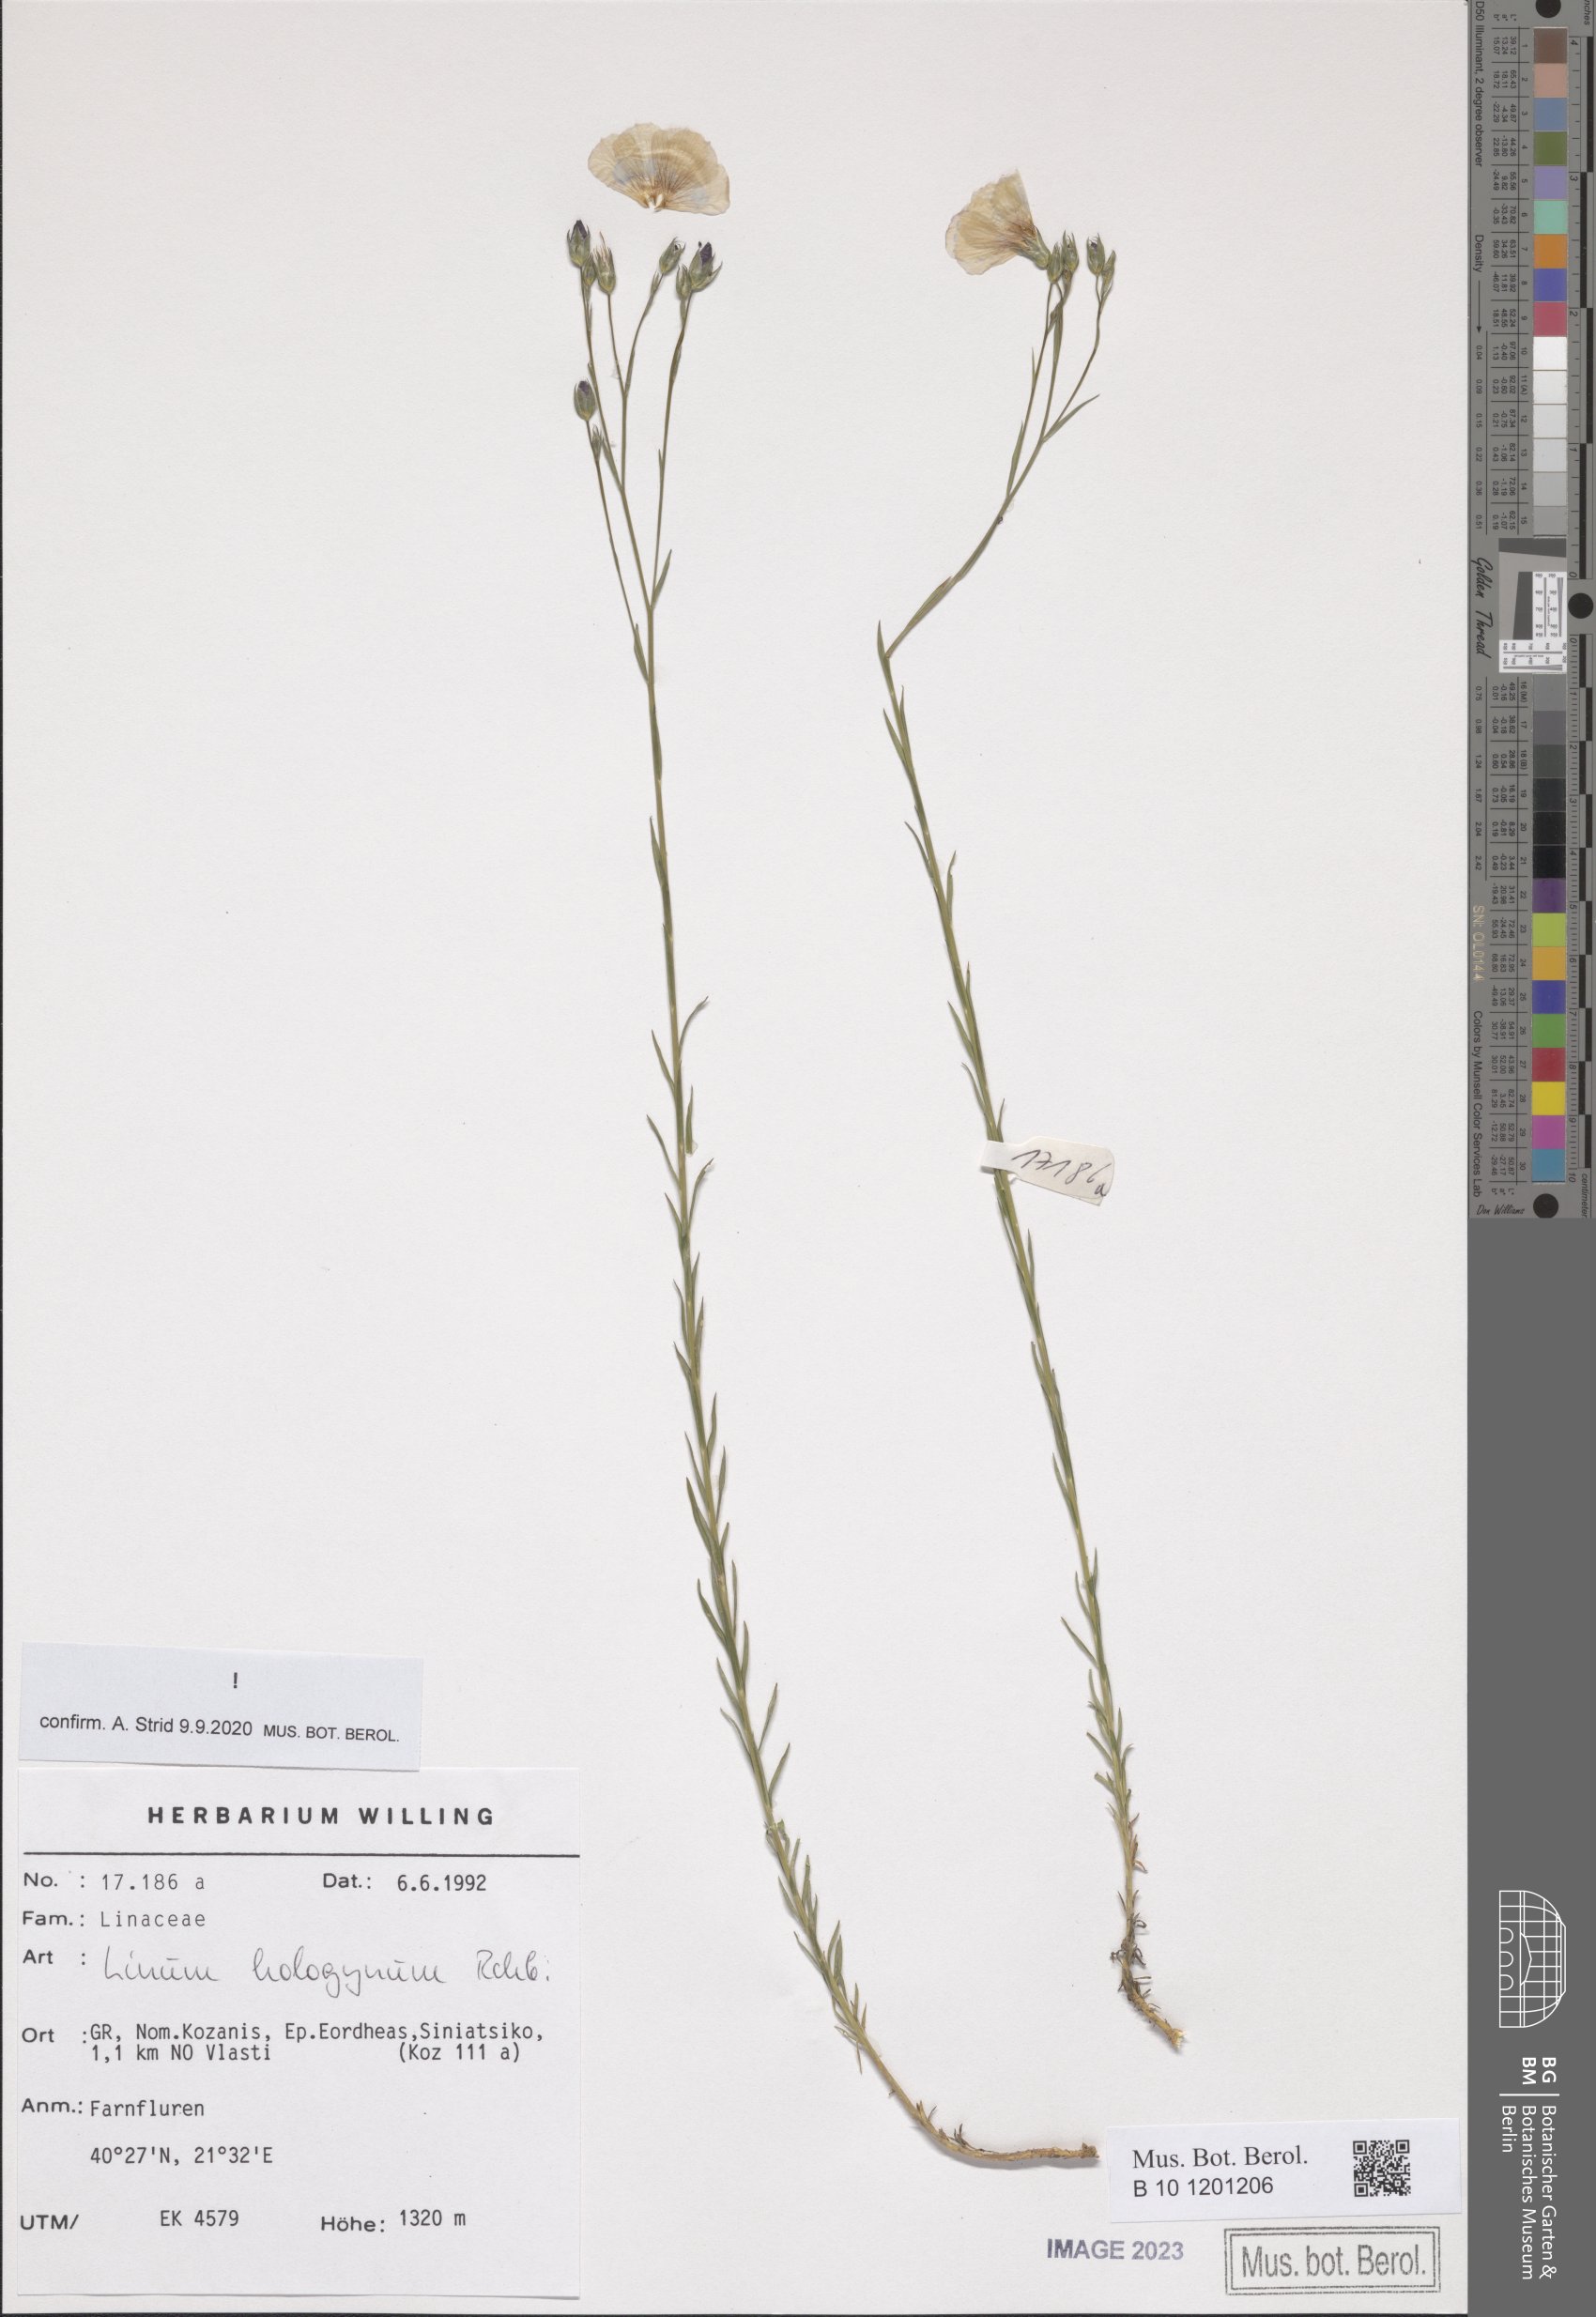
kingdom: Plantae
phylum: Tracheophyta
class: Magnoliopsida
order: Malpighiales
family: Linaceae
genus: Linum
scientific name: Linum hologynum
